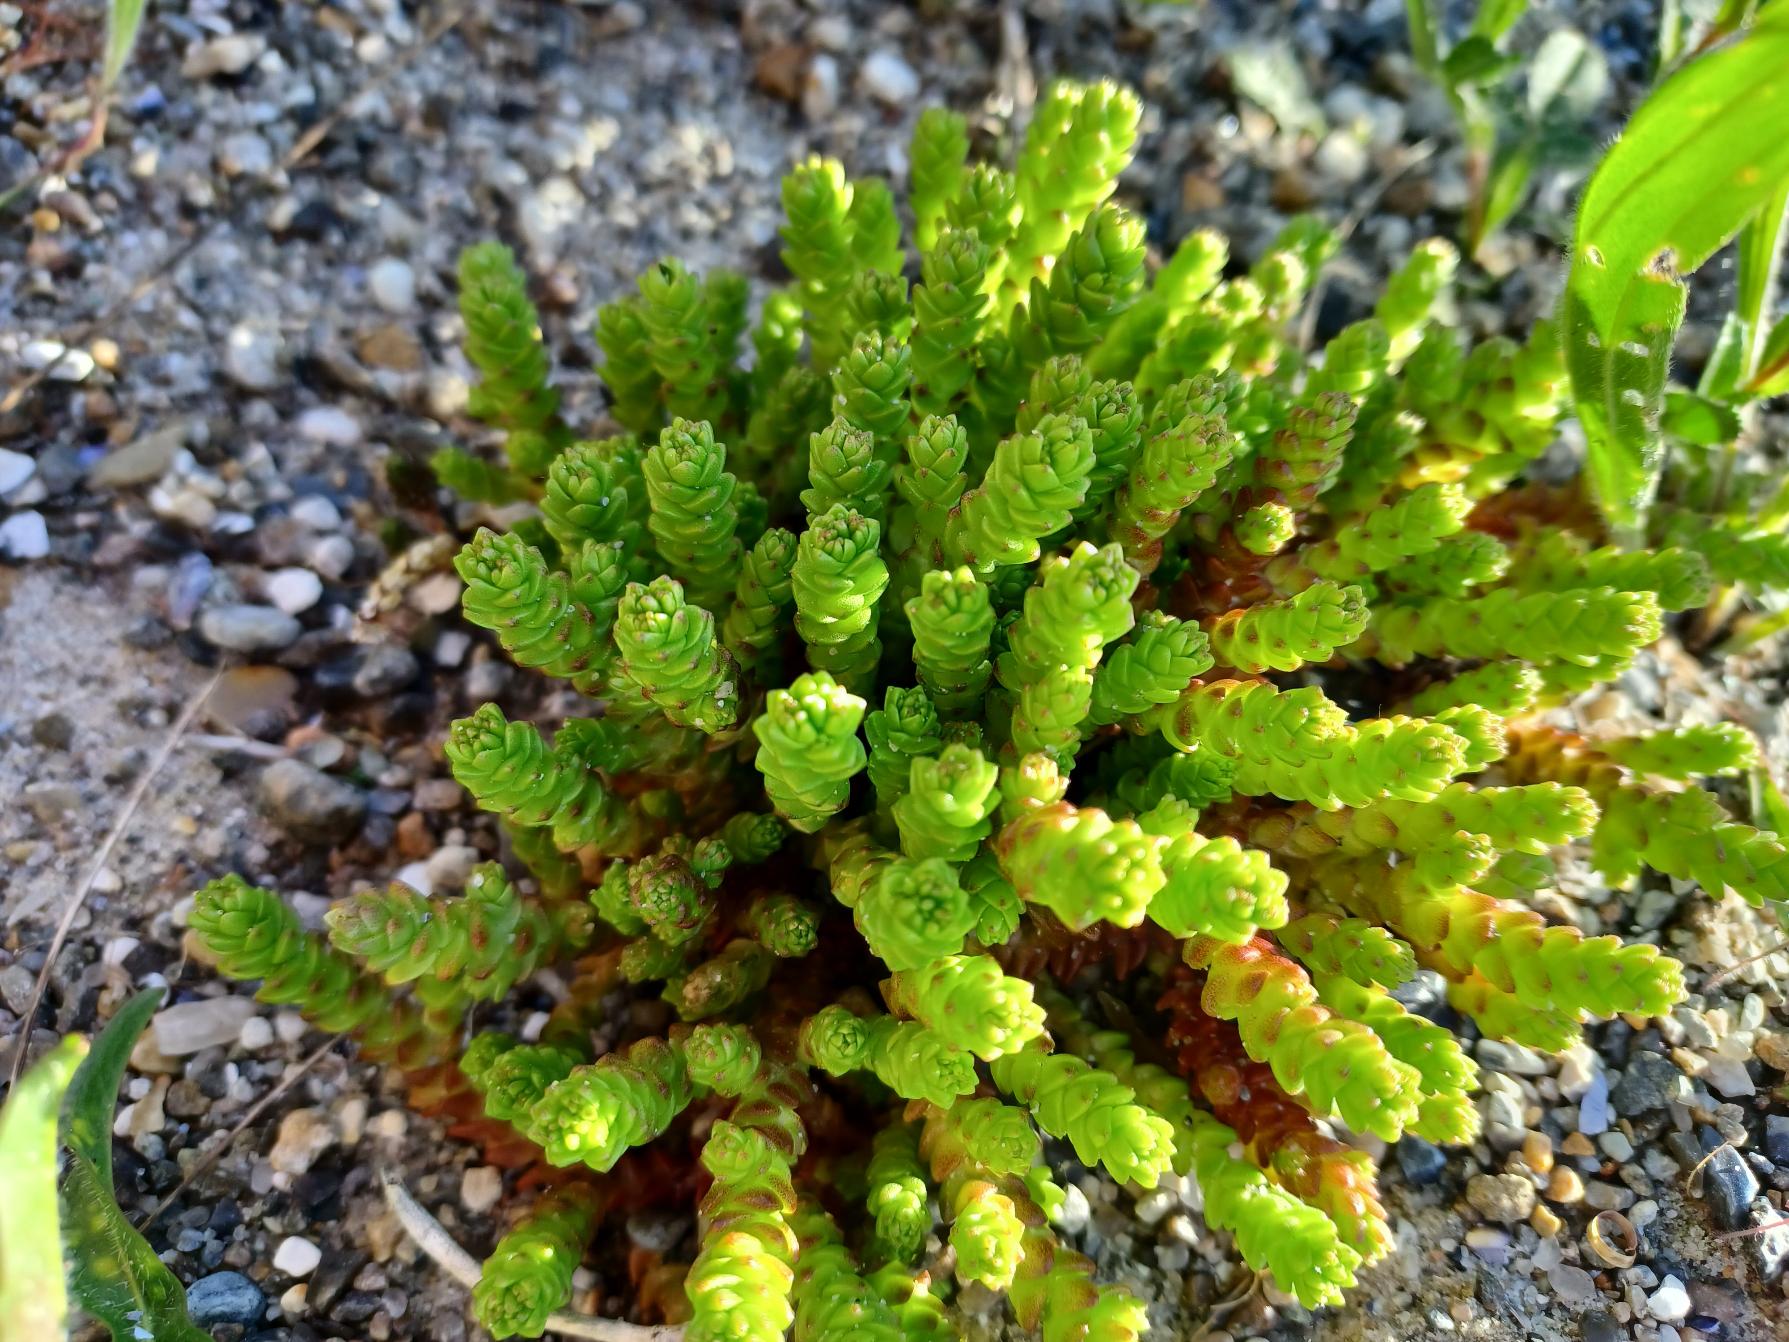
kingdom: Plantae
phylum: Tracheophyta
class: Magnoliopsida
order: Saxifragales
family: Crassulaceae
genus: Sedum
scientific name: Sedum acre
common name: Bidende stenurt
